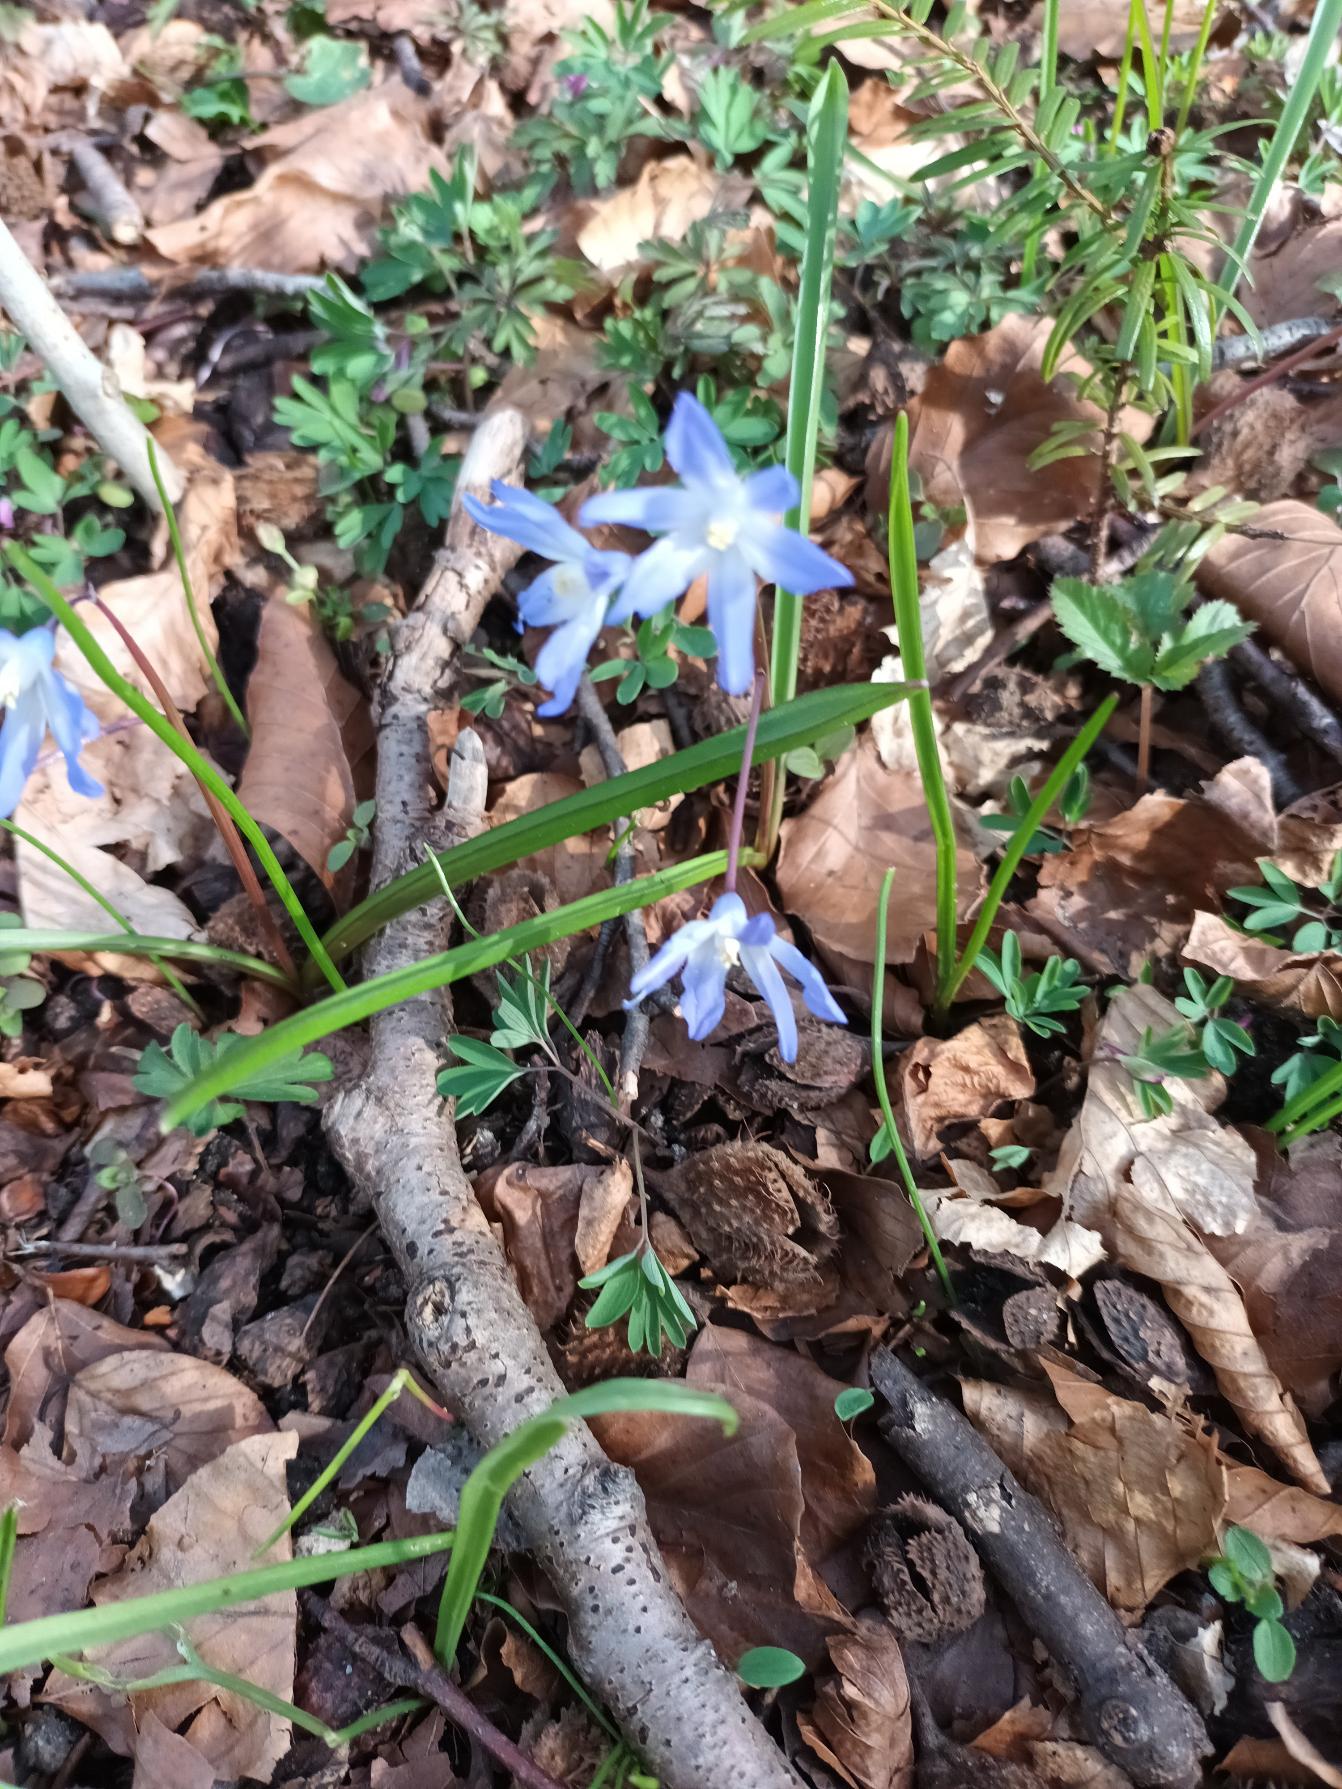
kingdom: Plantae
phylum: Tracheophyta
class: Liliopsida
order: Asparagales
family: Asparagaceae
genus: Scilla
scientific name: Scilla forbesii
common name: Almindelig snepryd
